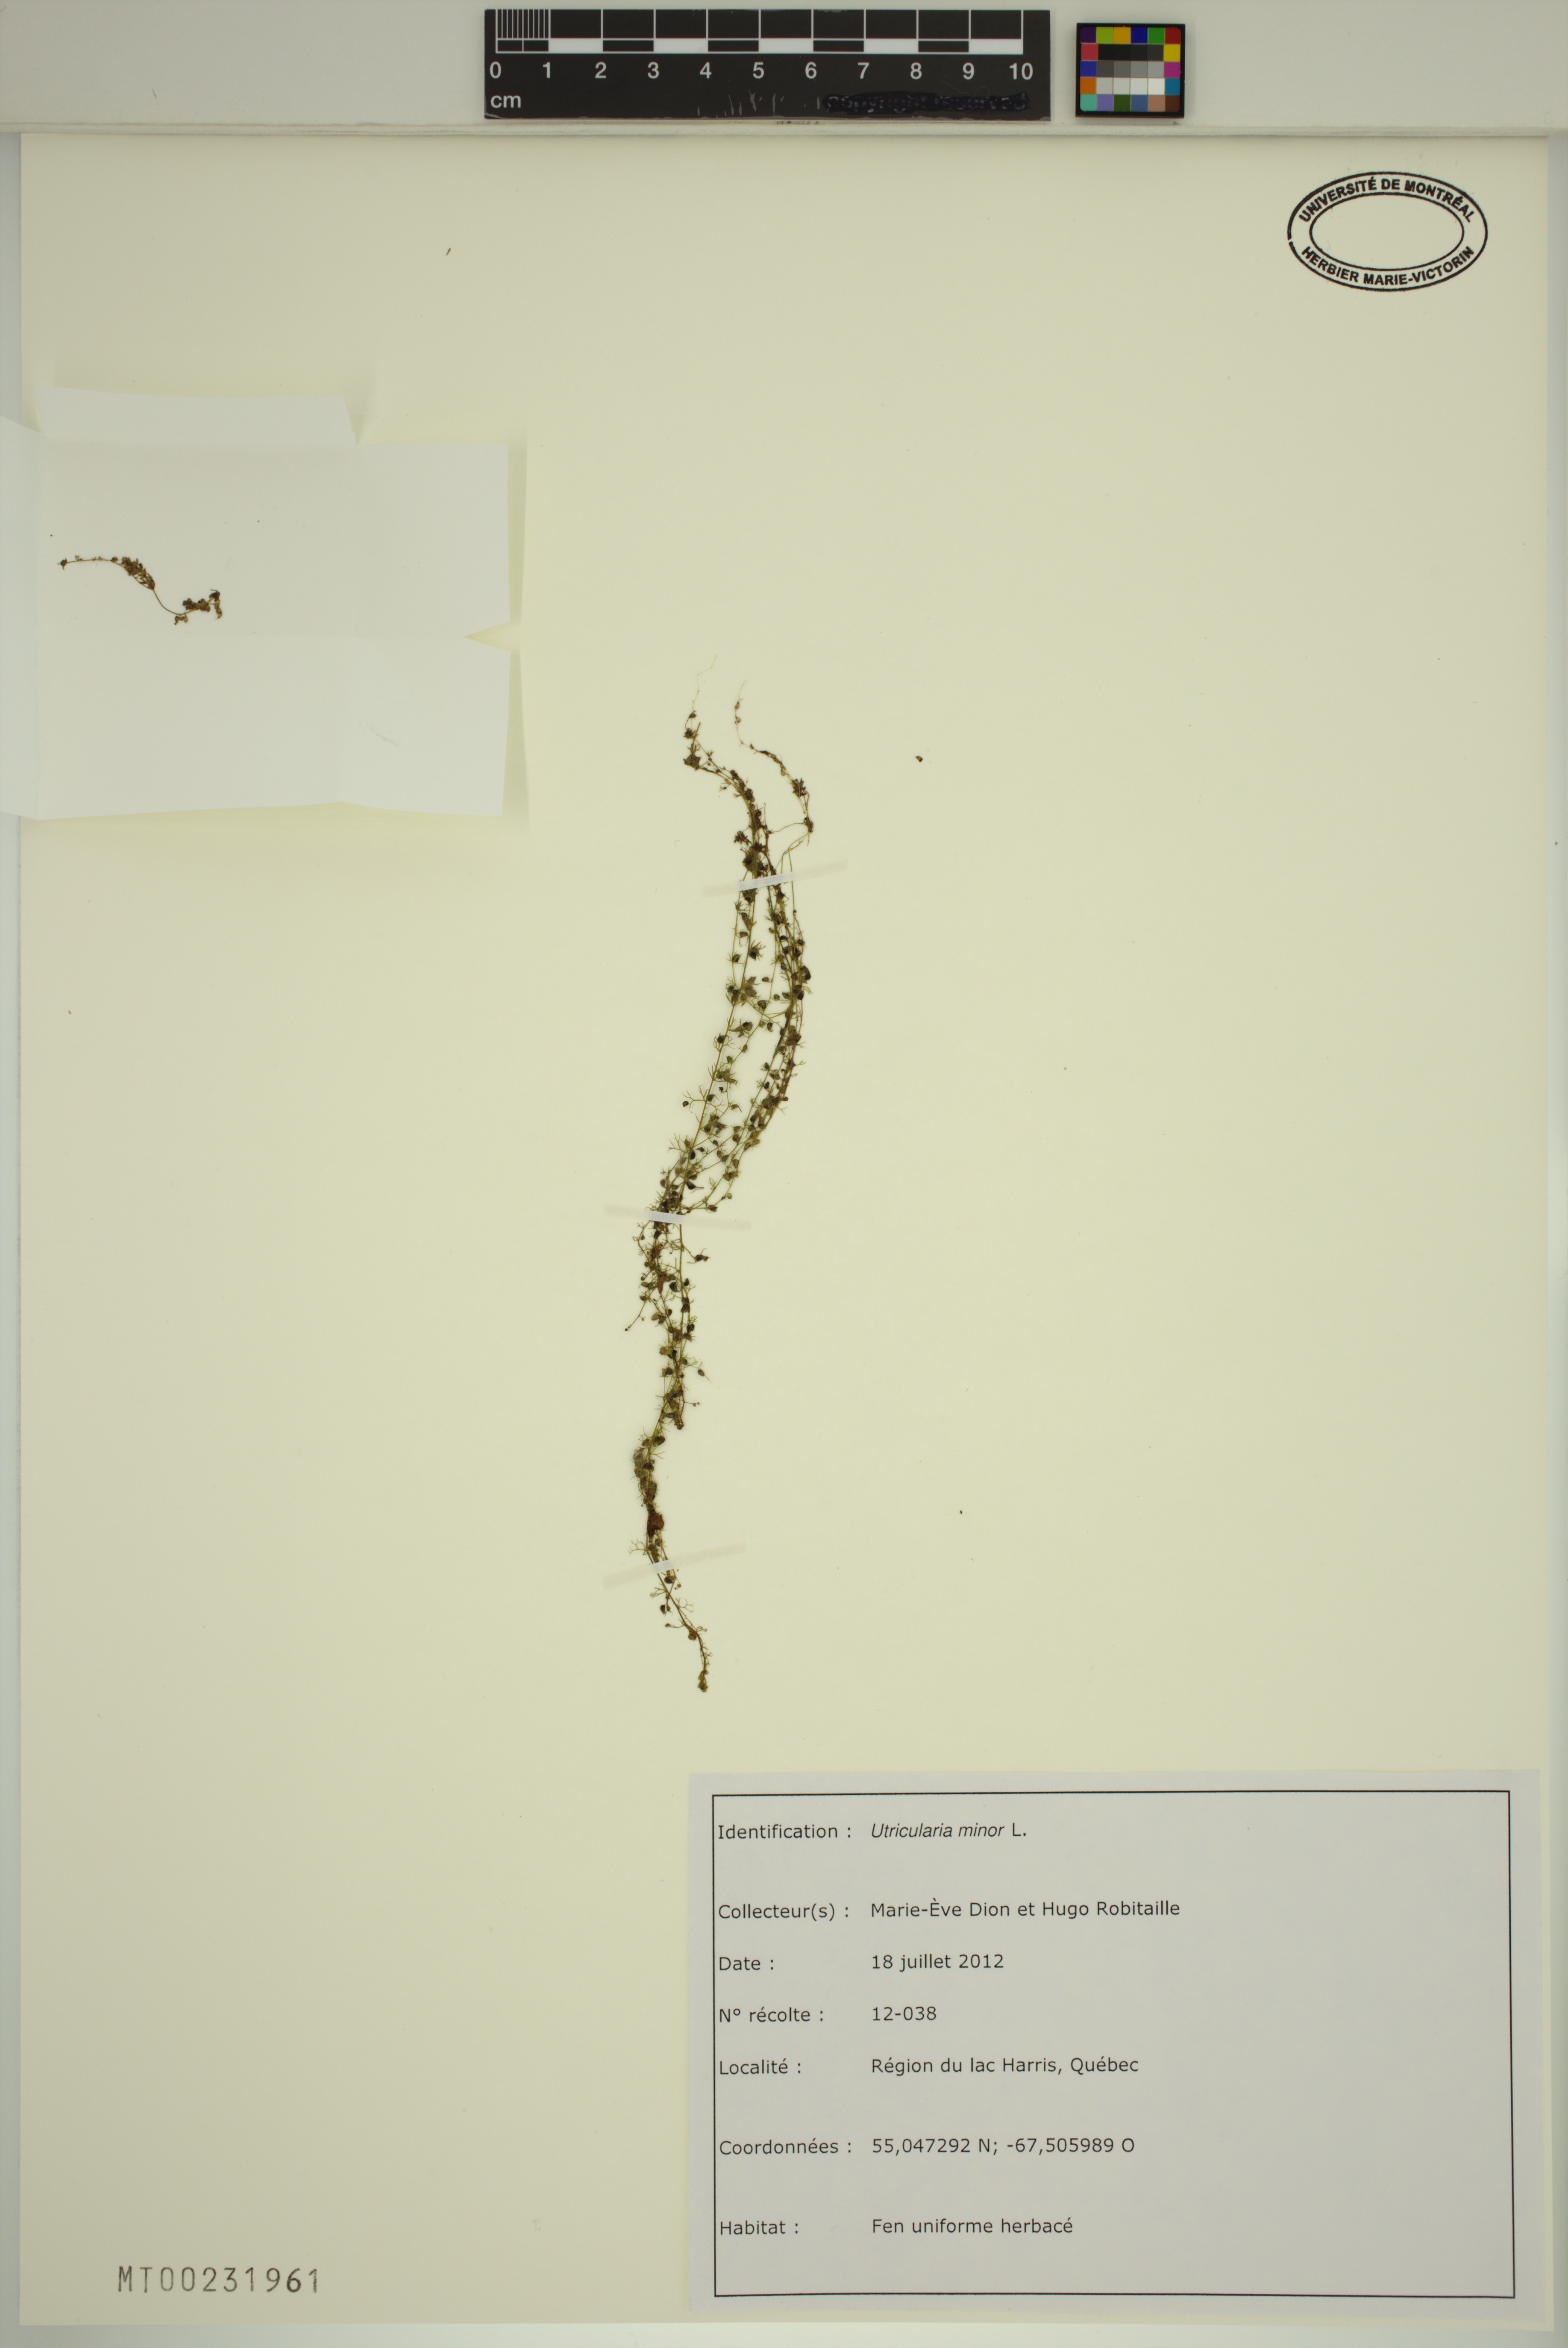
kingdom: Plantae
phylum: Tracheophyta
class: Magnoliopsida
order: Lamiales
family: Lentibulariaceae
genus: Utricularia
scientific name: Utricularia minor
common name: Lesser bladderwort
